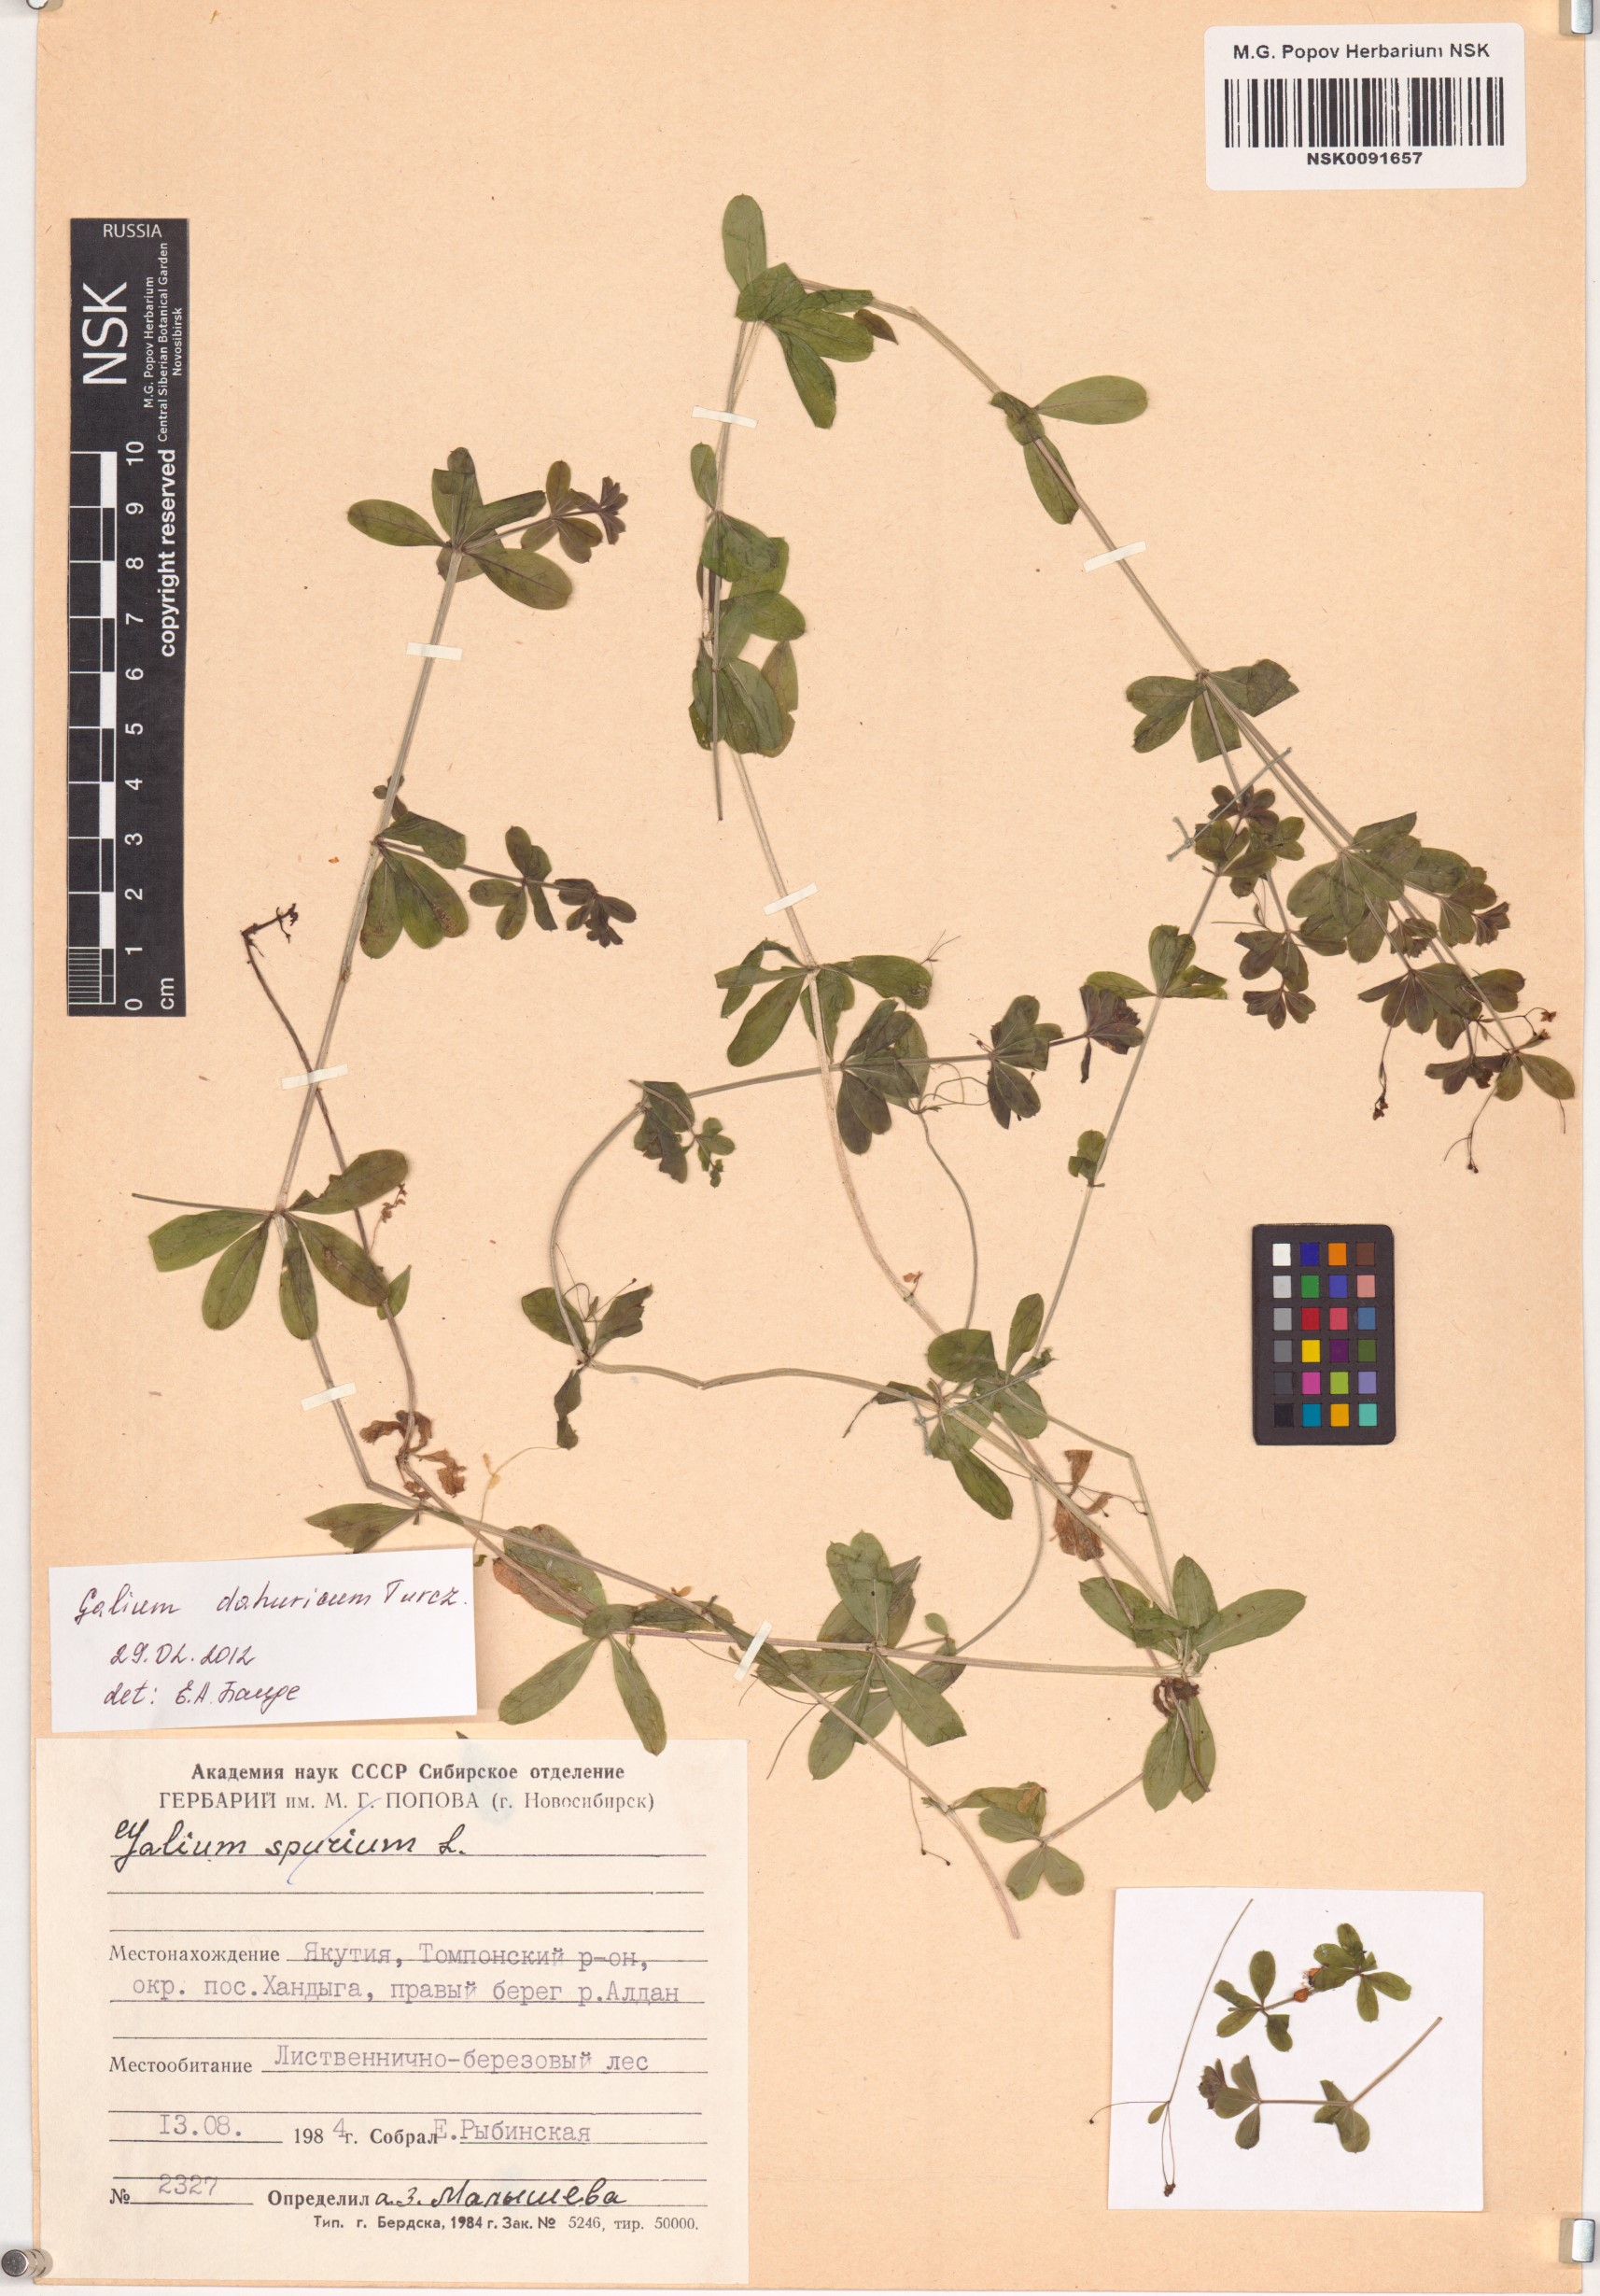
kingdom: Plantae
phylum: Tracheophyta
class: Magnoliopsida
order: Gentianales
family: Rubiaceae
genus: Galium
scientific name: Galium dahuricum
